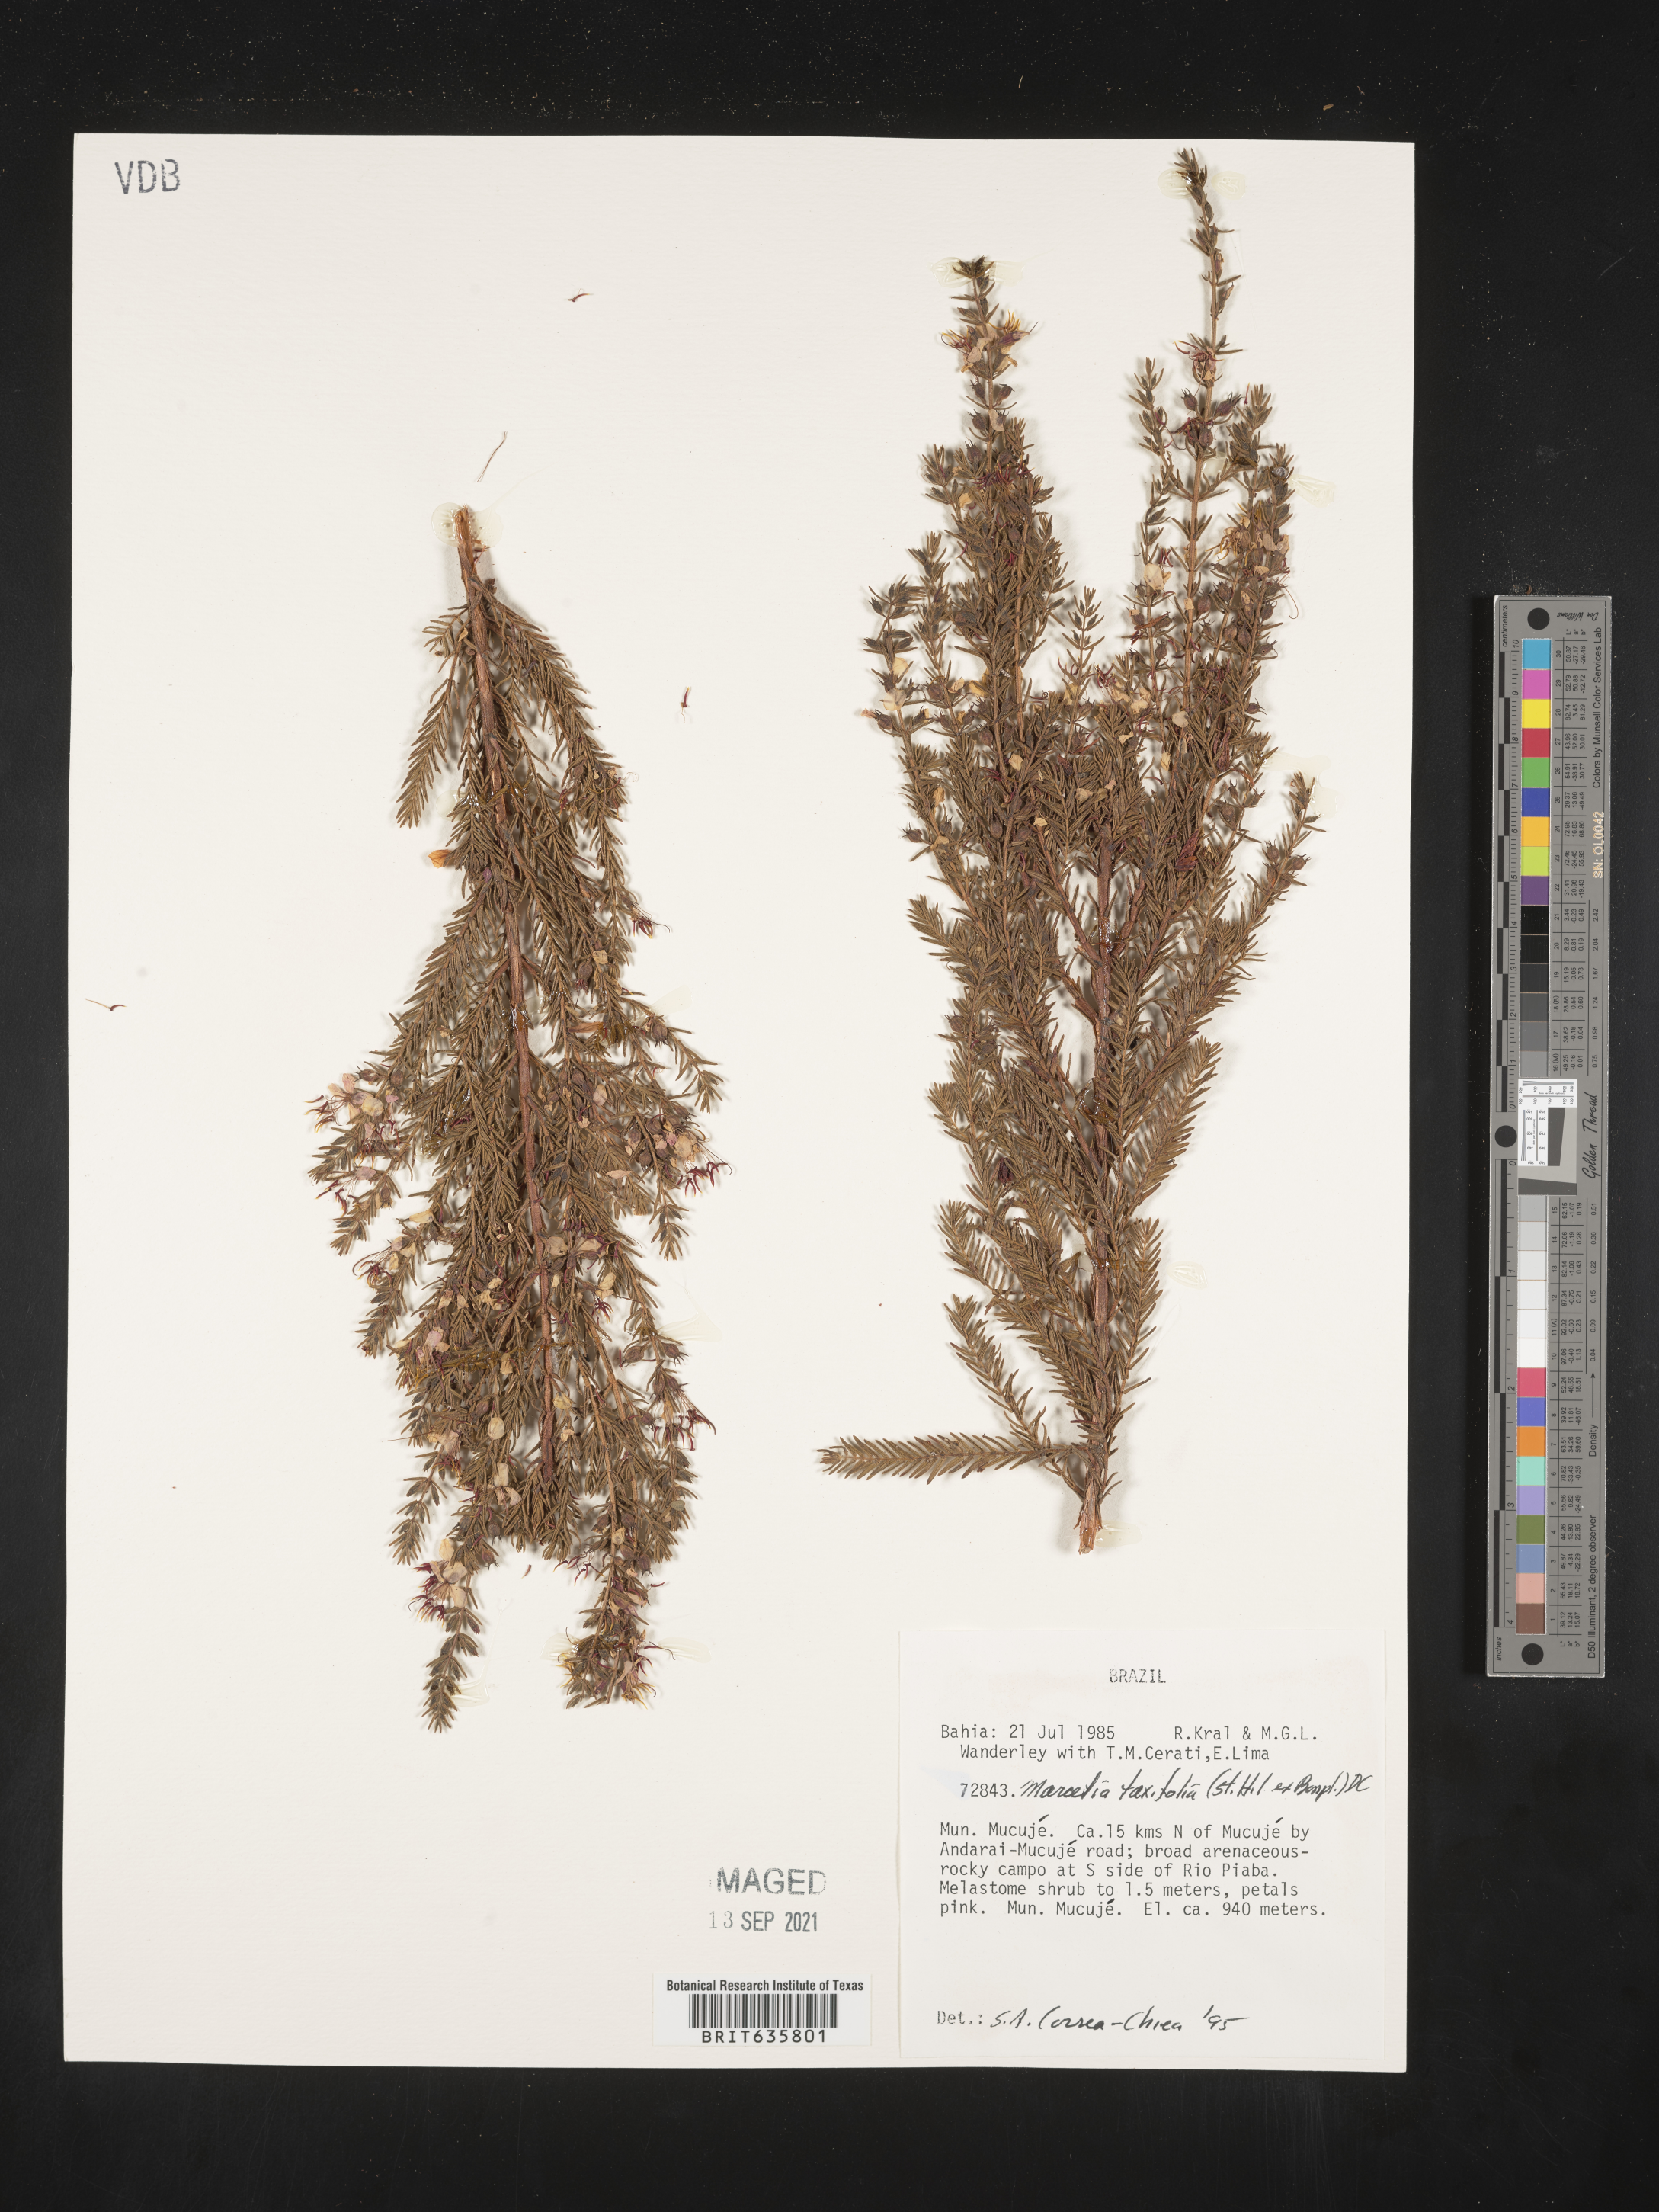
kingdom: Plantae
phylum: Tracheophyta
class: Magnoliopsida
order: Myrtales
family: Melastomataceae
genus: Marcetia
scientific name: Marcetia
